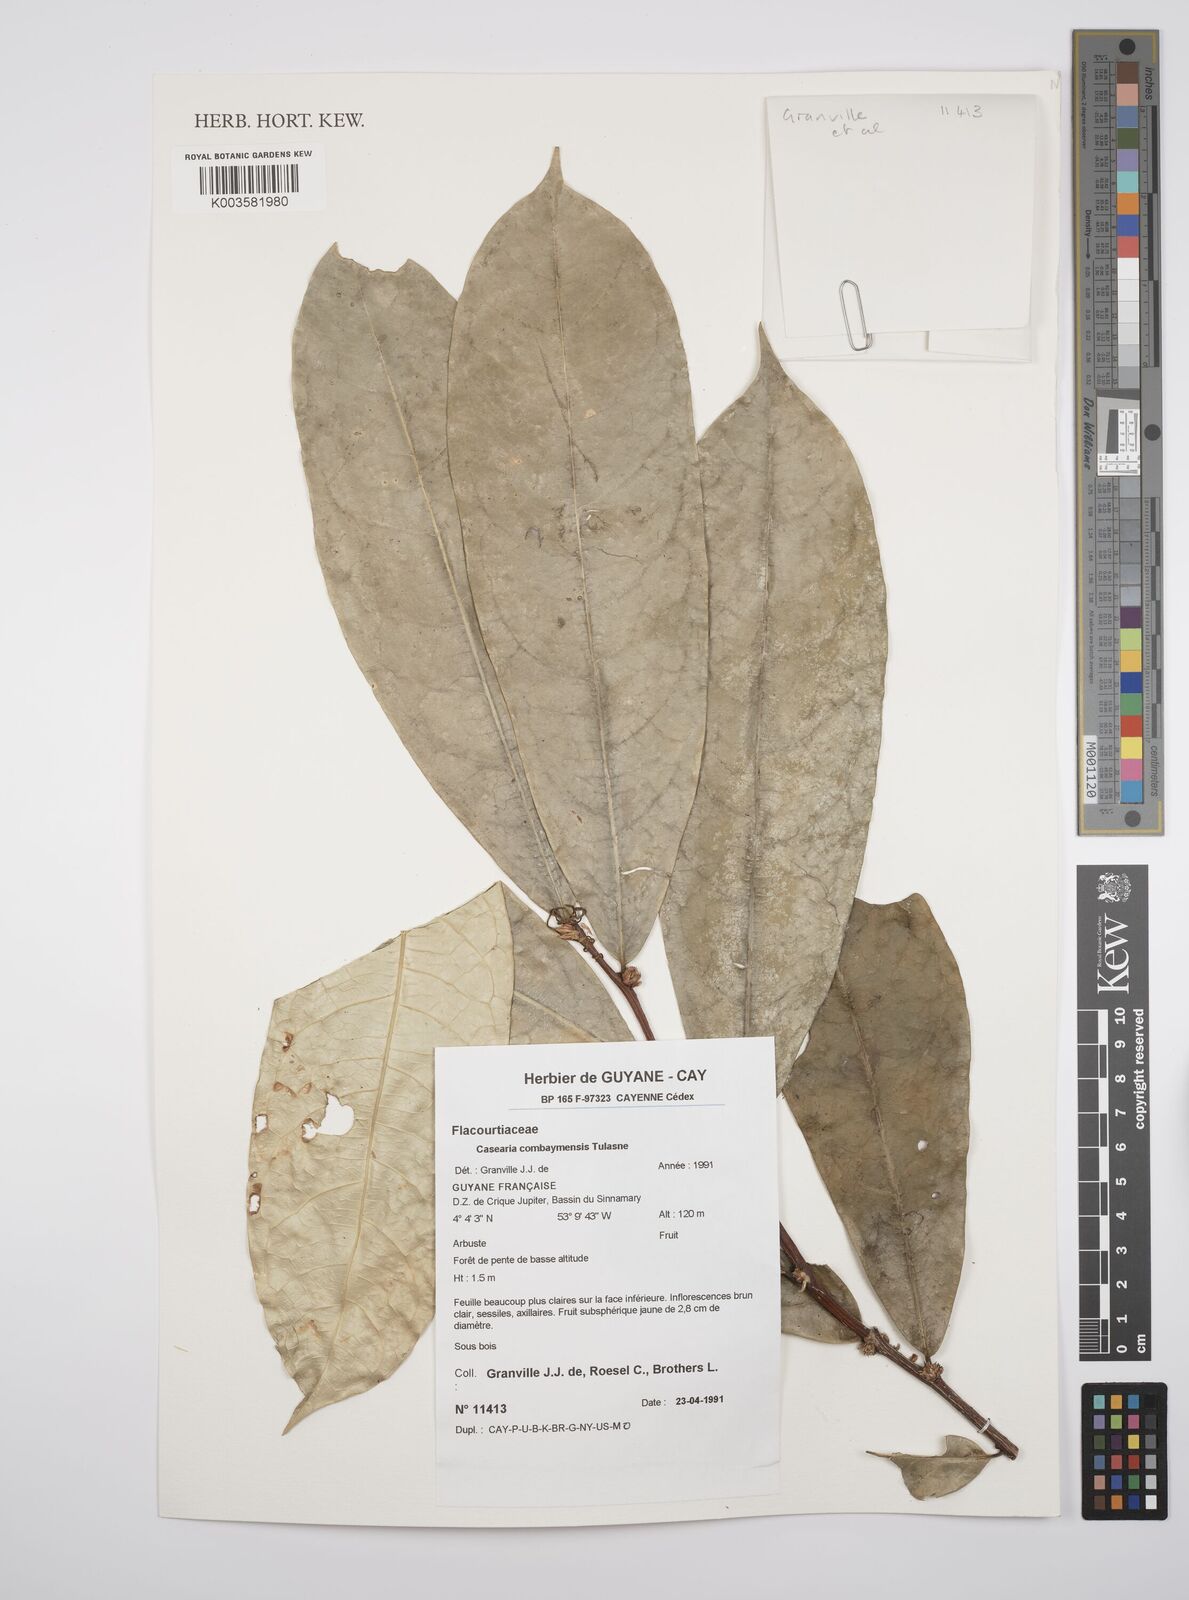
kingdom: Plantae
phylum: Tracheophyta
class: Magnoliopsida
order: Malpighiales
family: Salicaceae
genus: Casearia
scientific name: Casearia
